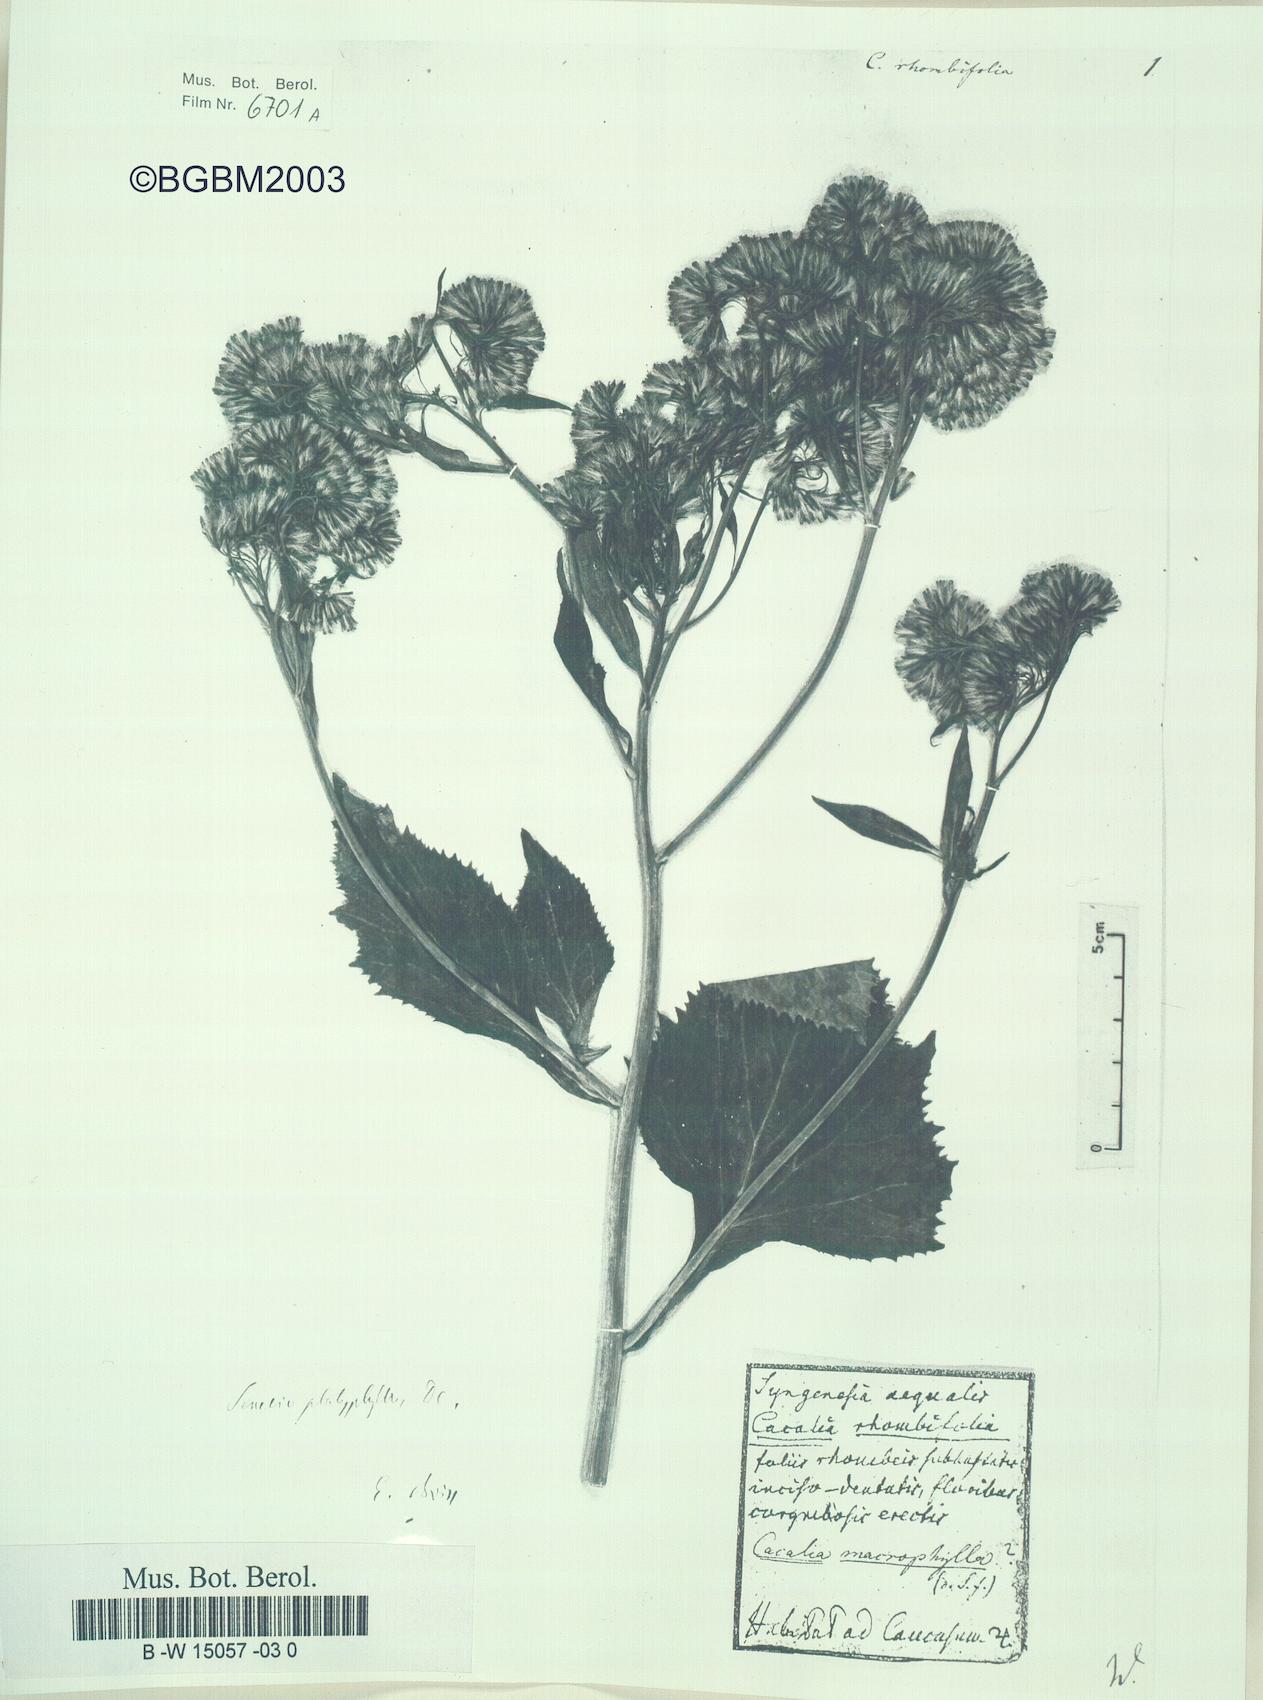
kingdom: Plantae
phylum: Tracheophyta
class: Magnoliopsida
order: Asterales
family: Asteraceae
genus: Caucasalia
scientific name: Caucasalia macrophylla
